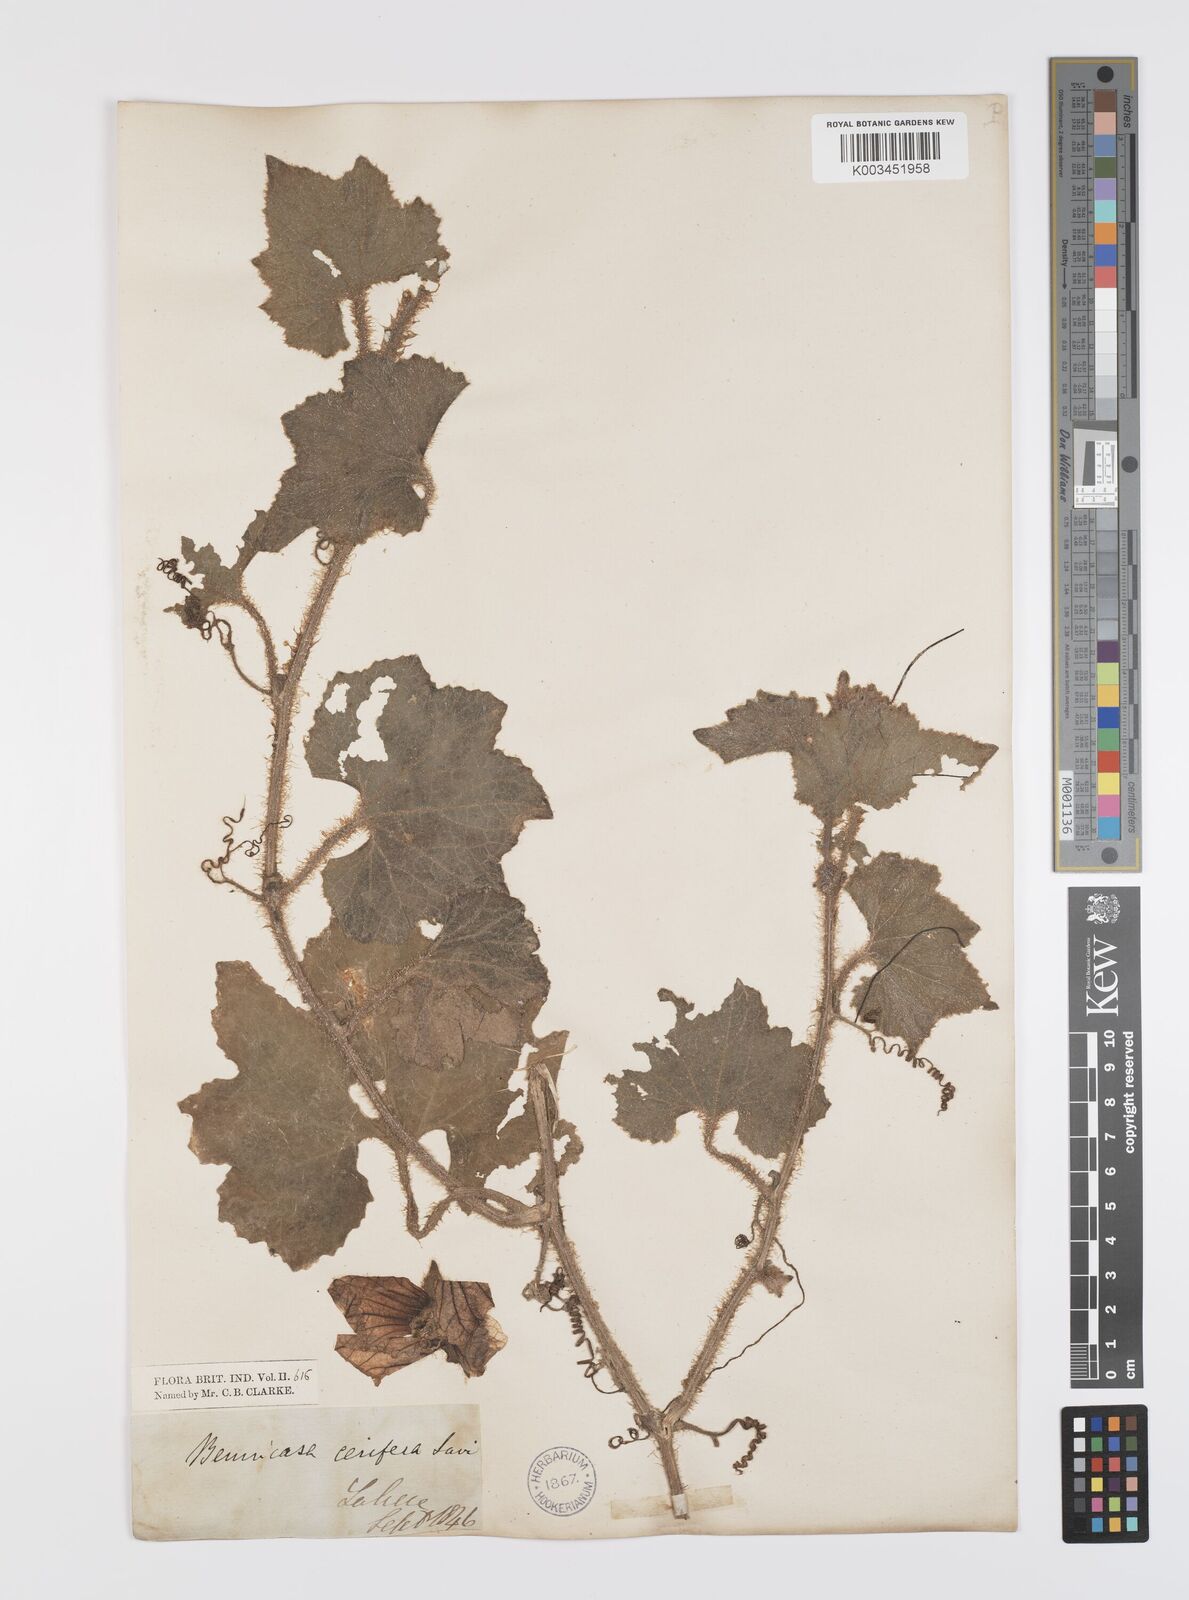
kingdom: Plantae
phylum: Tracheophyta
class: Magnoliopsida
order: Cucurbitales
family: Cucurbitaceae
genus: Benincasa
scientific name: Benincasa hispida
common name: Chinese-watermelon
